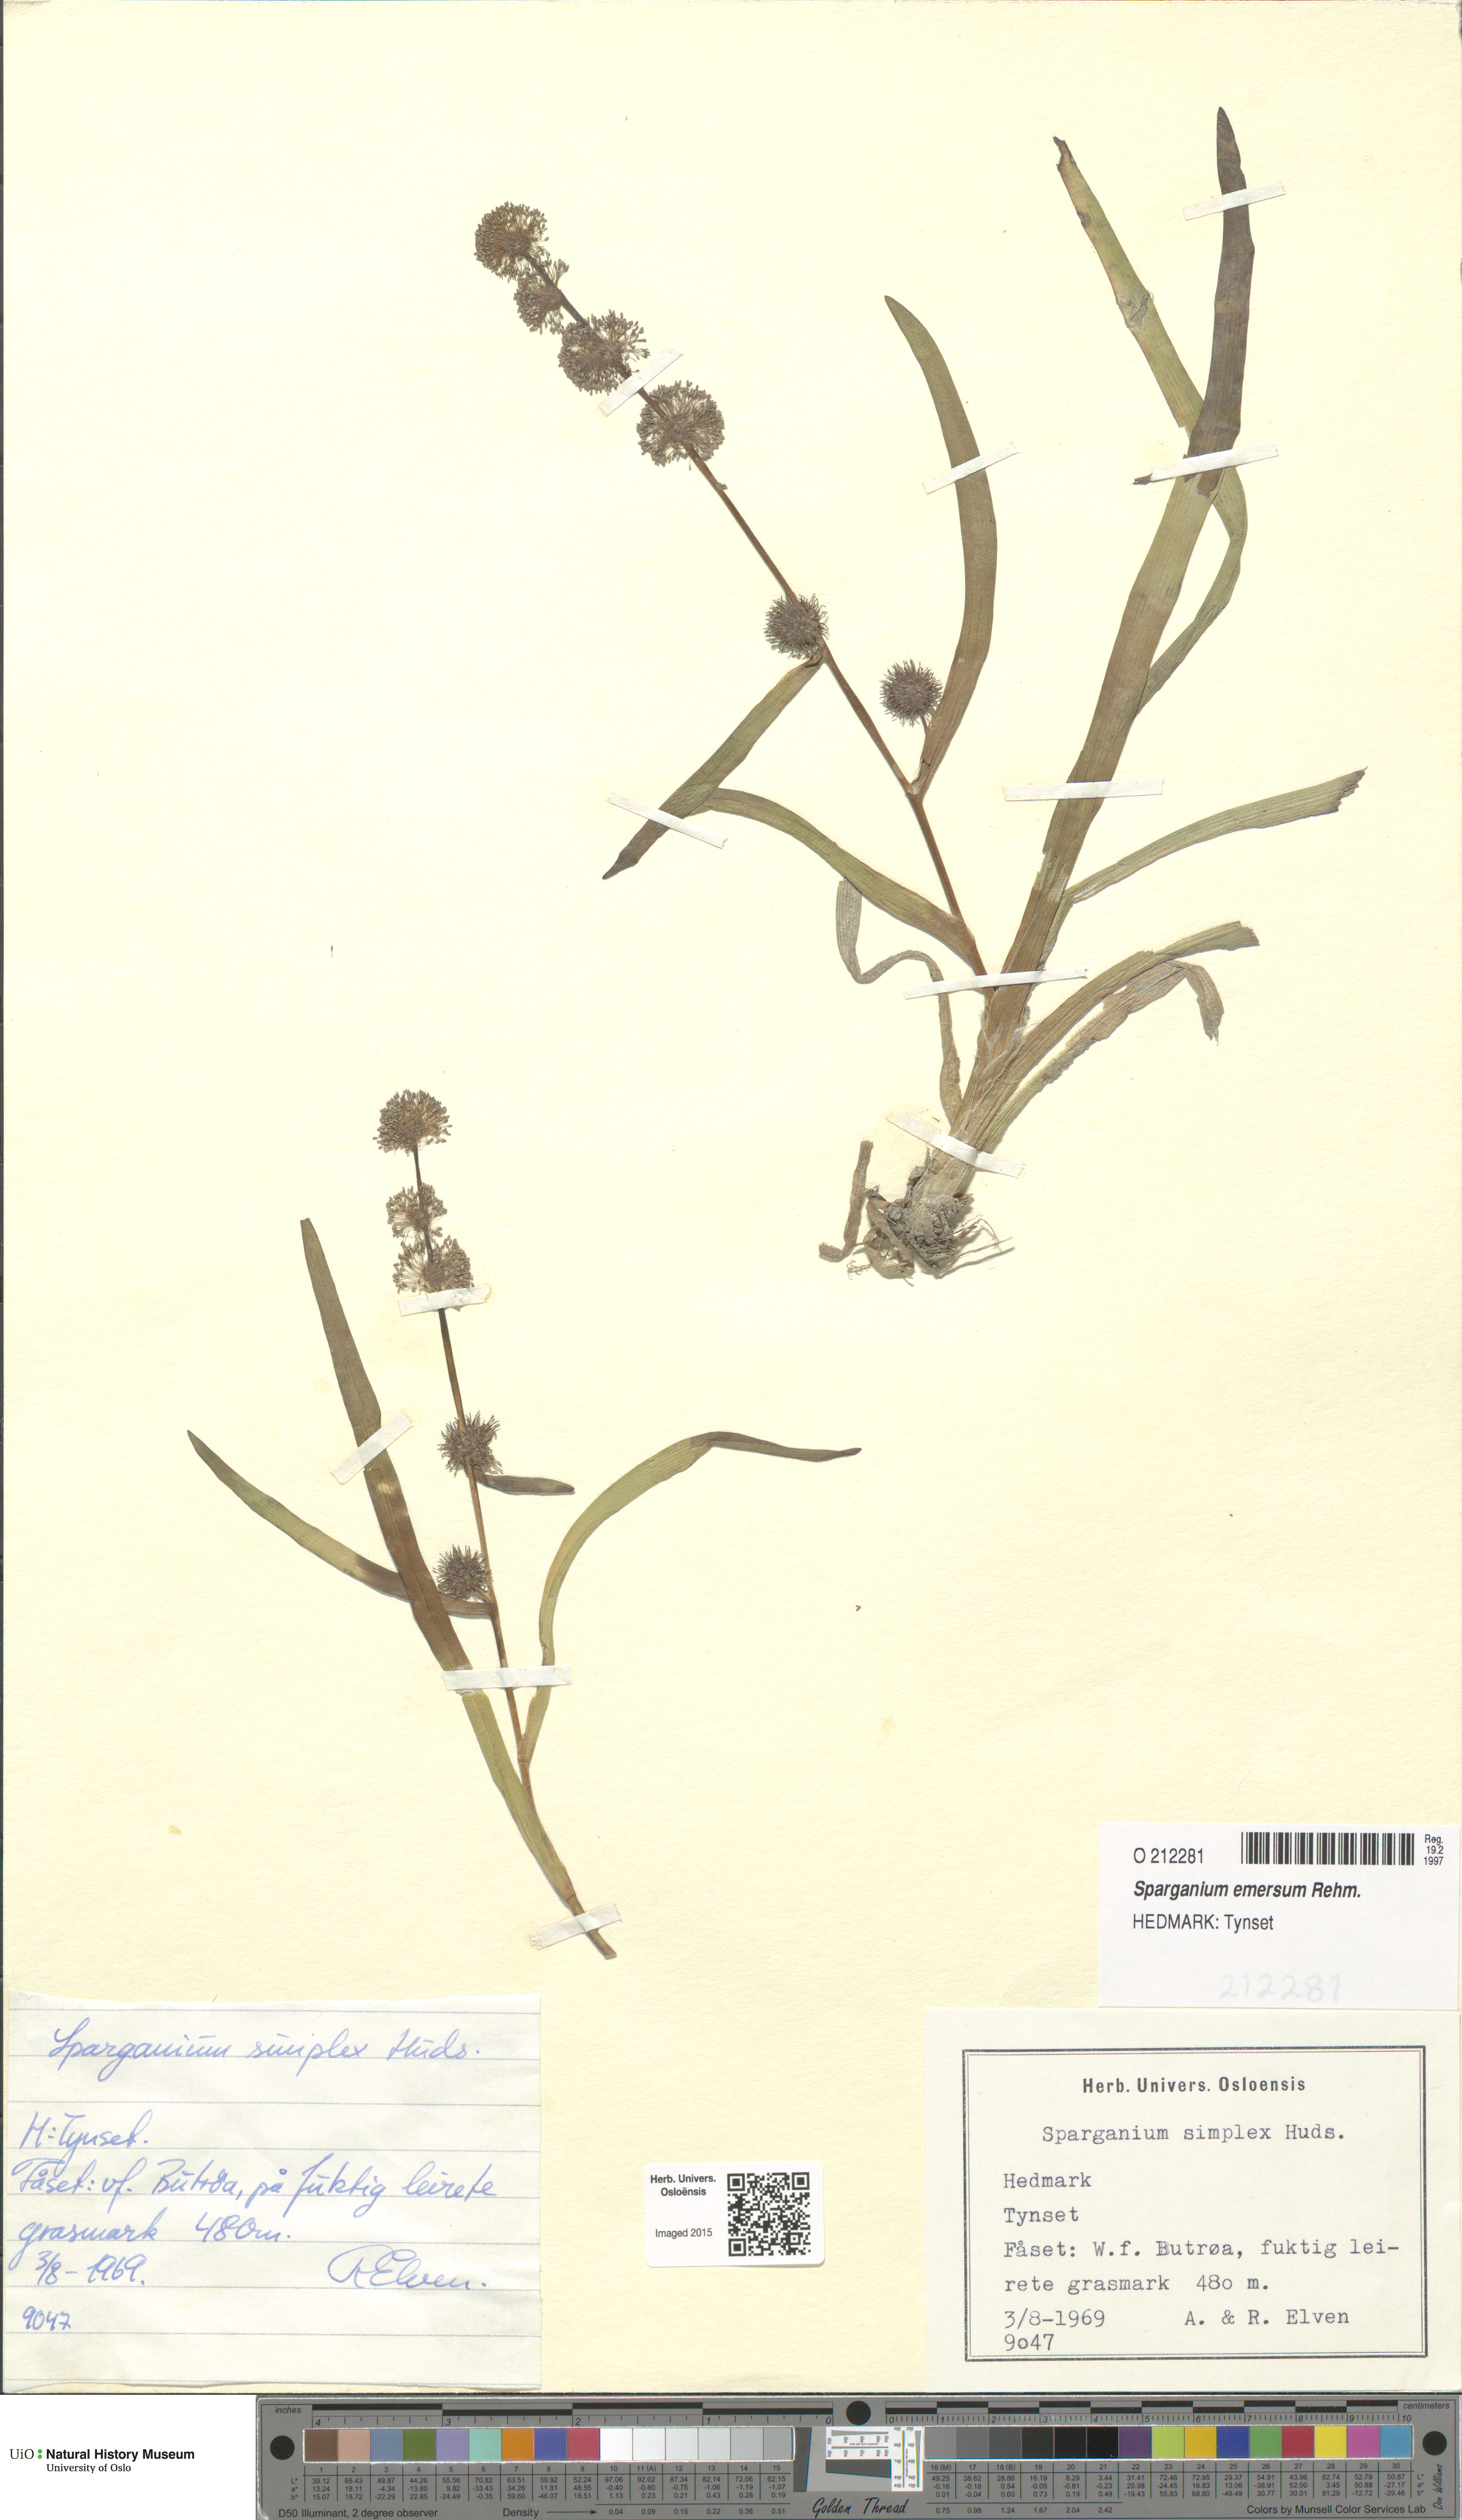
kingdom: Plantae
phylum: Tracheophyta
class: Liliopsida
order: Poales
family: Typhaceae
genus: Sparganium
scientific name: Sparganium emersum
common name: Unbranched bur-reed
